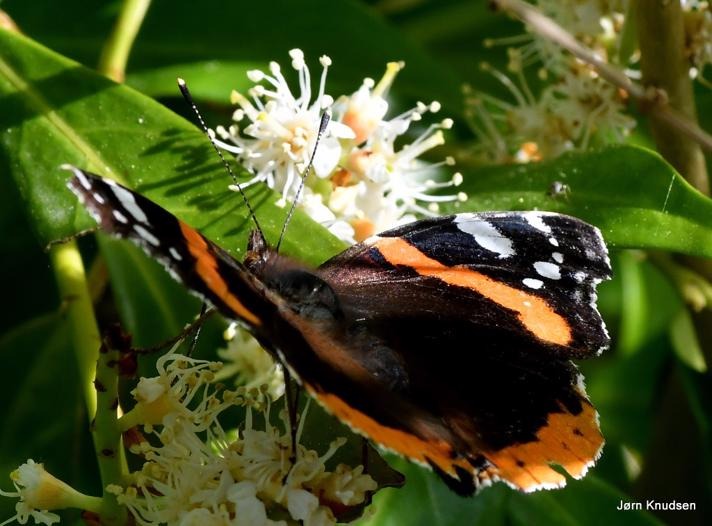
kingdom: Animalia
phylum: Arthropoda
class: Insecta
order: Lepidoptera
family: Nymphalidae
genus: Vanessa
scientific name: Vanessa atalanta
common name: Admiral
